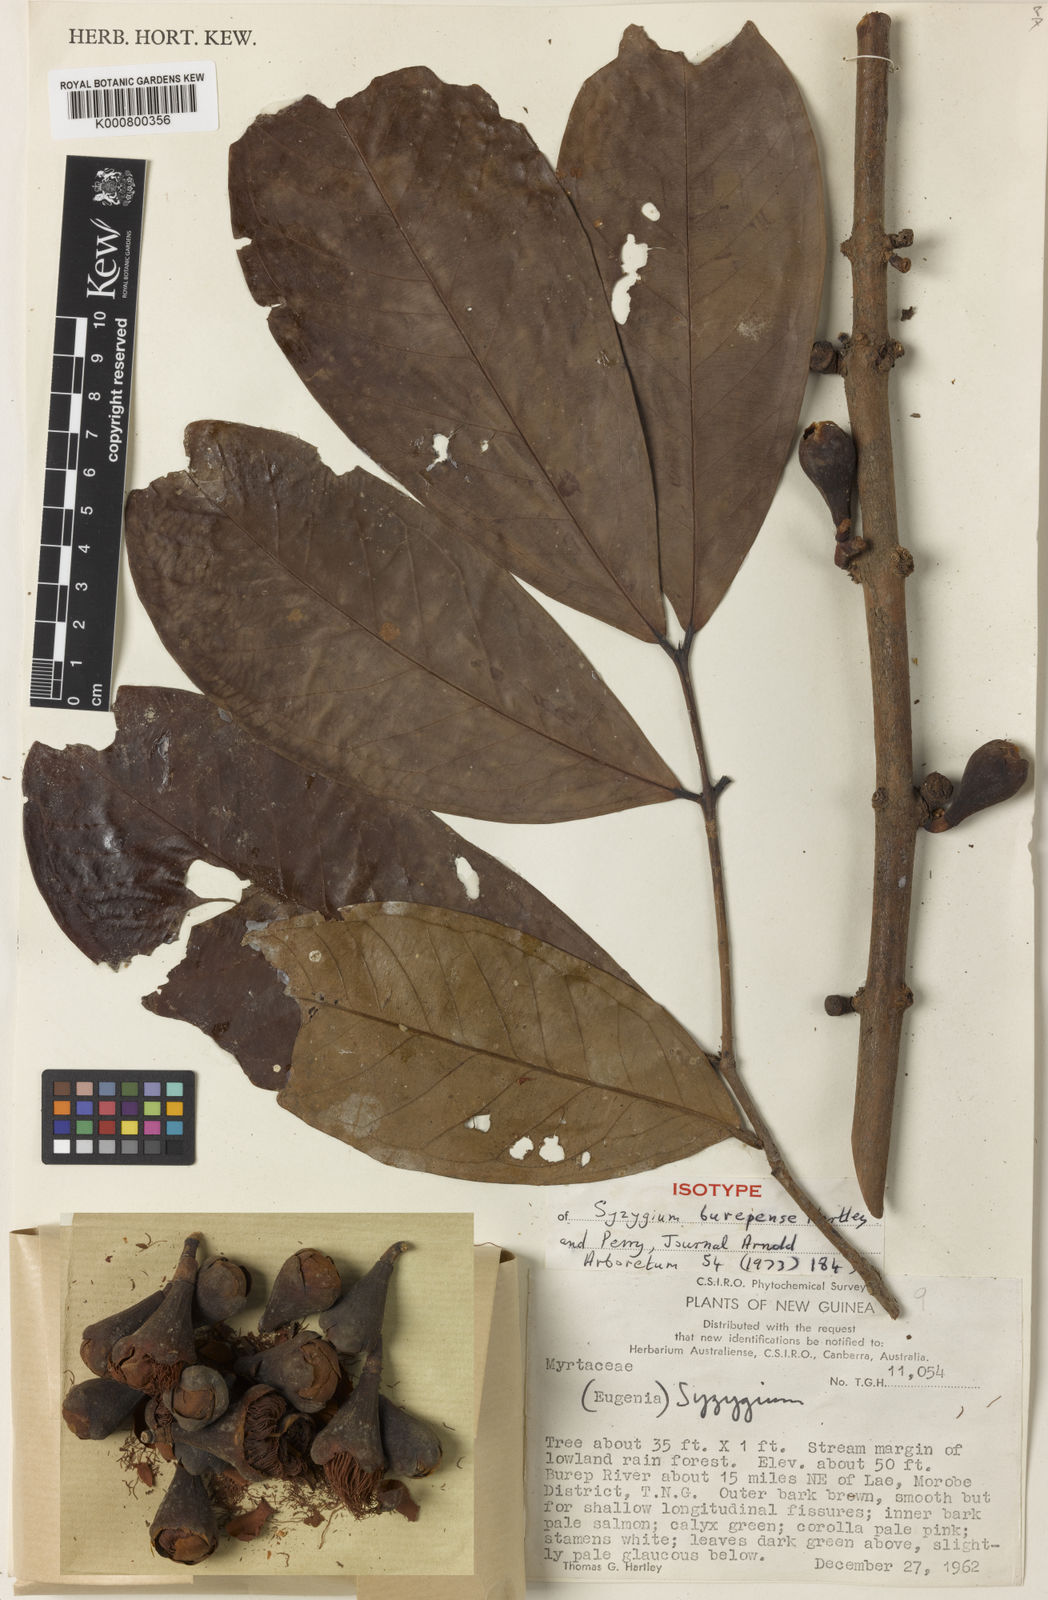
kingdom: Plantae
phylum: Tracheophyta
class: Magnoliopsida
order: Myrtales
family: Myrtaceae
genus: Syzygium
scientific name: Syzygium burepense
